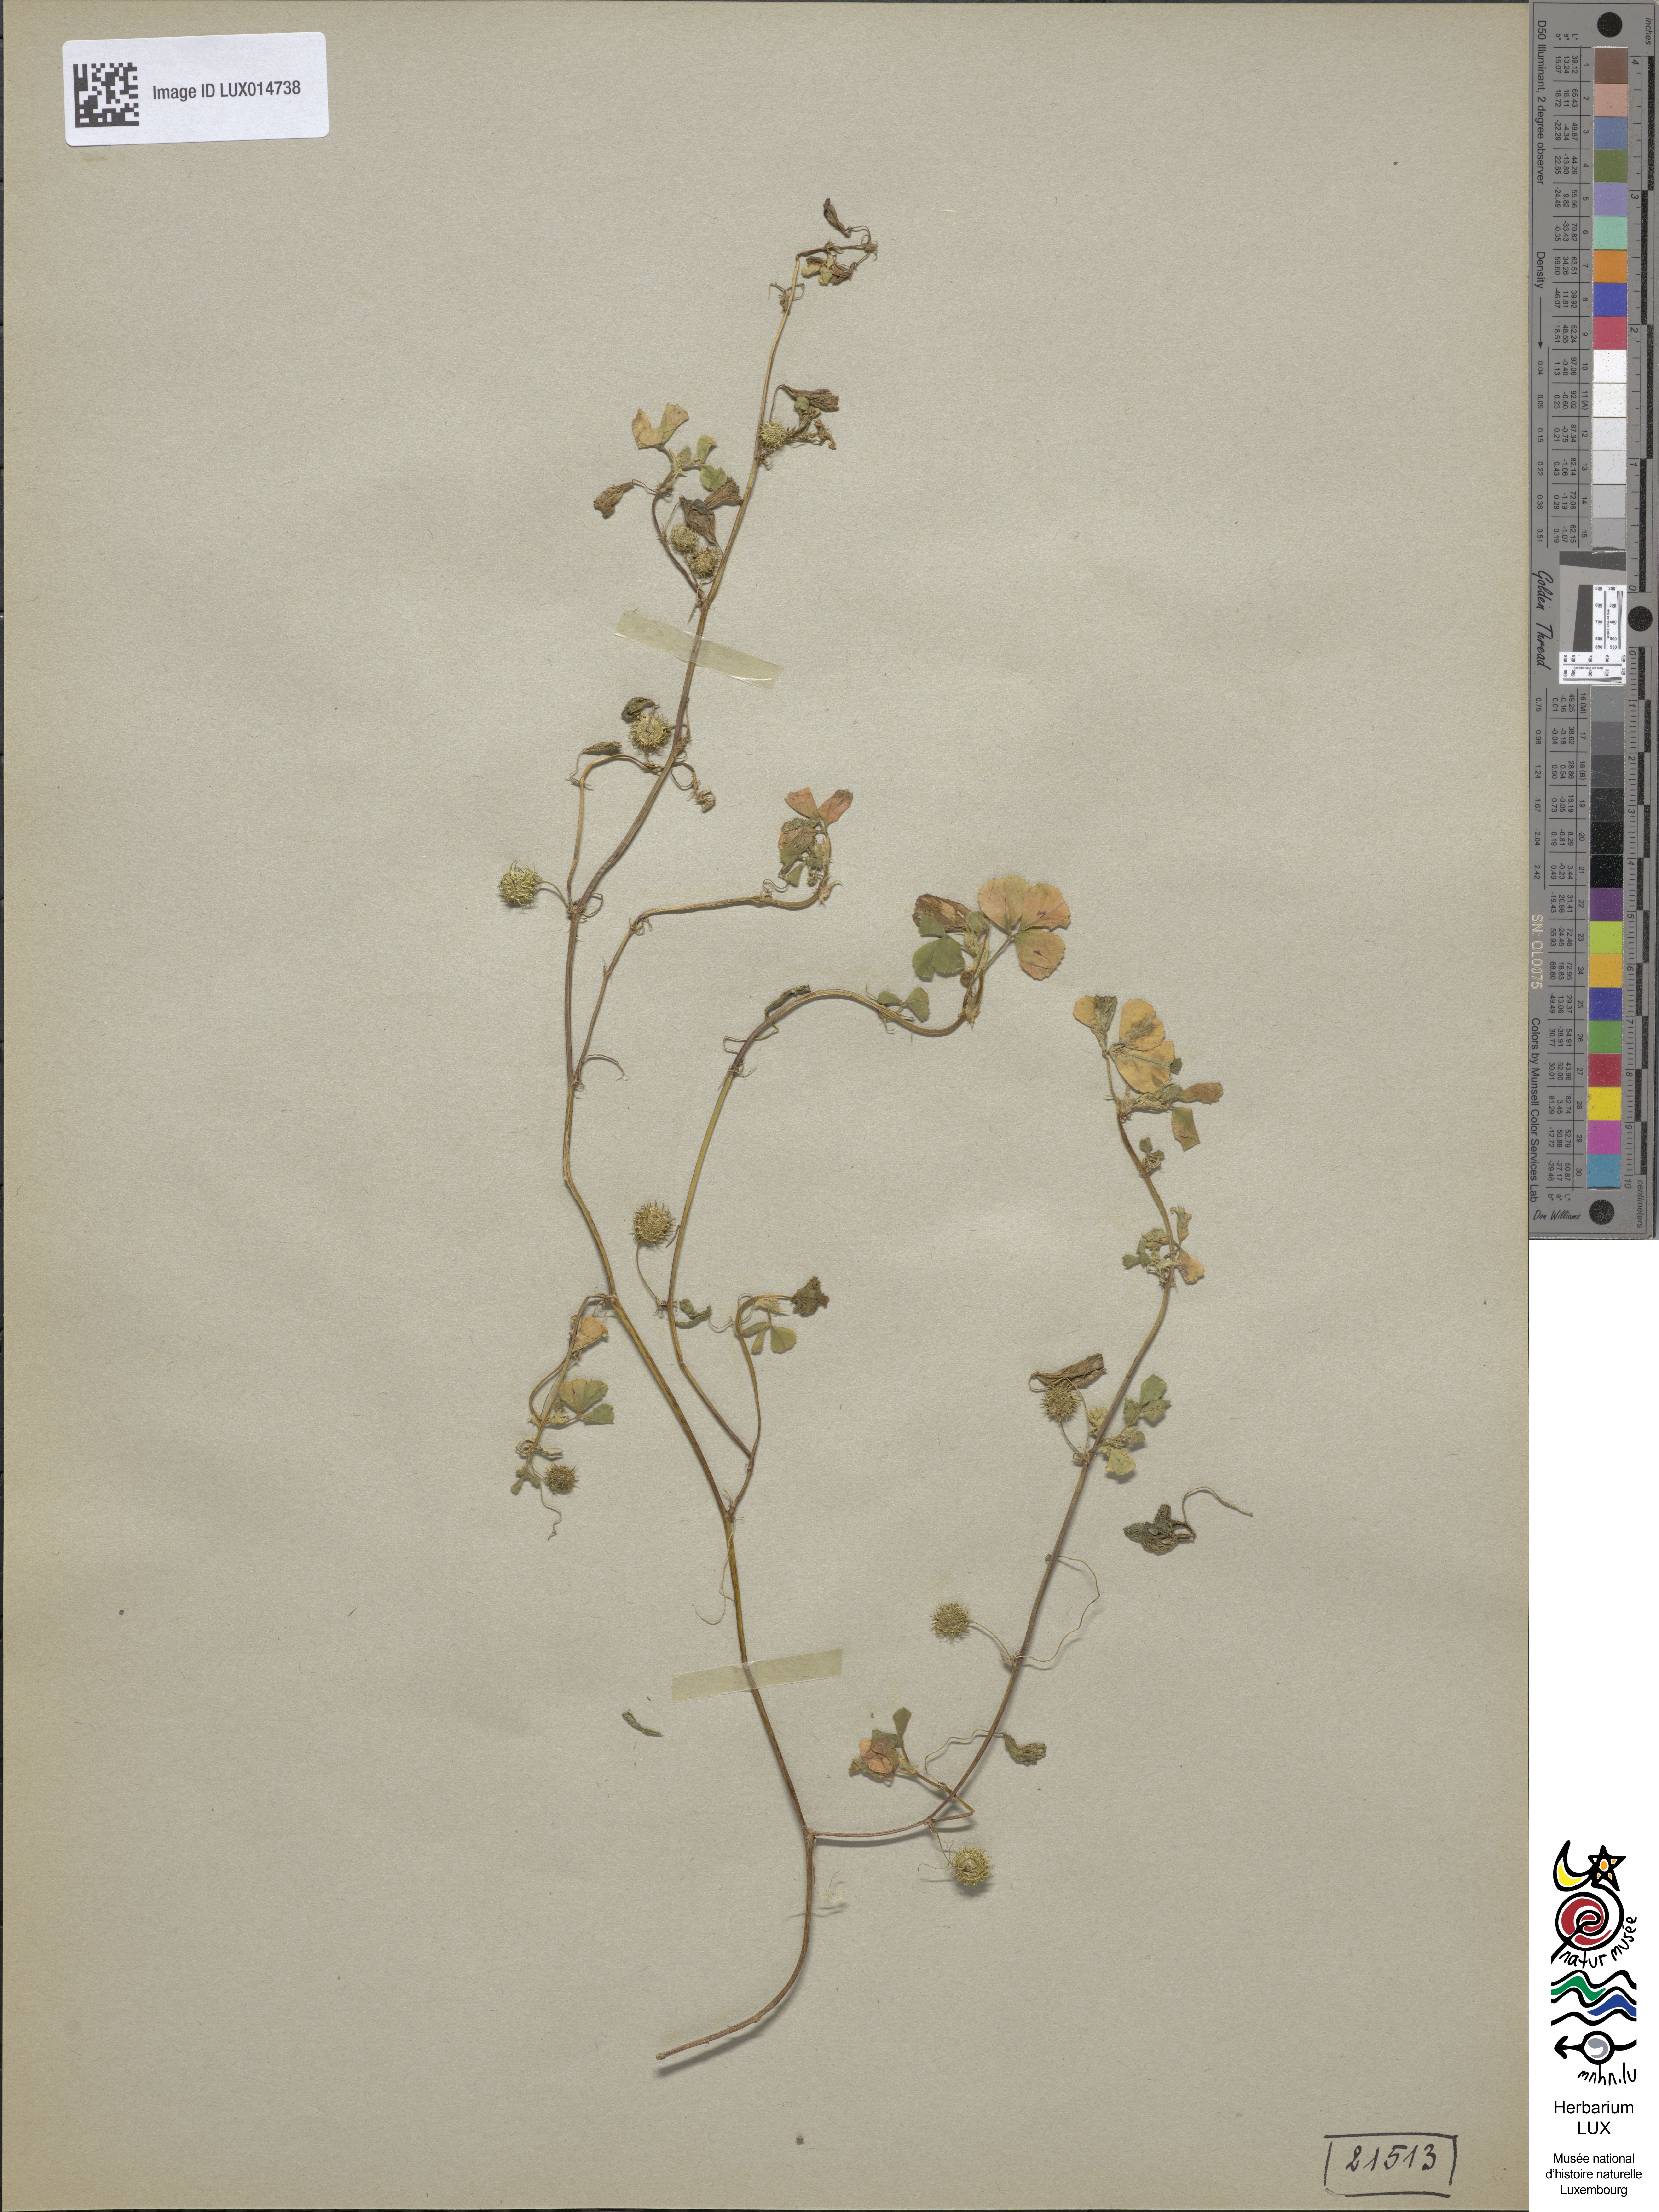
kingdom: Plantae
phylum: Tracheophyta
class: Magnoliopsida
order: Fabales
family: Fabaceae
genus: Medicago
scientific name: Medicago arabica
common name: Spotted medick
